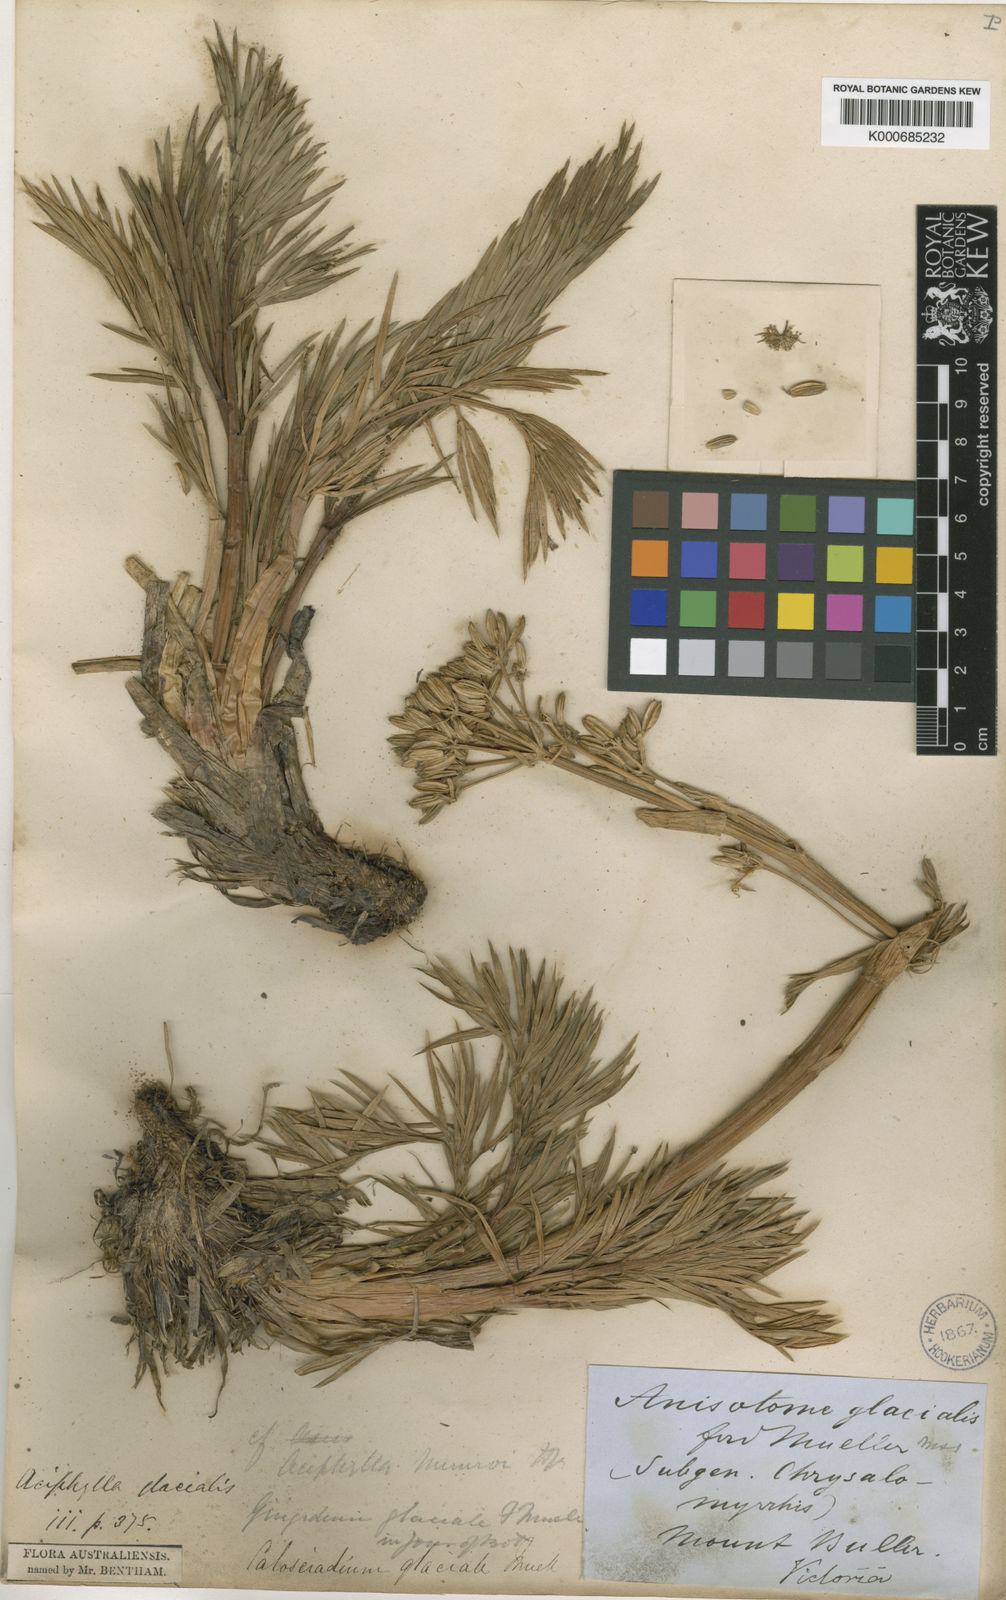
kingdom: Plantae
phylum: Tracheophyta
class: Magnoliopsida
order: Apiales
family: Apiaceae
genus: Aciphylla
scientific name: Aciphylla glacialis
